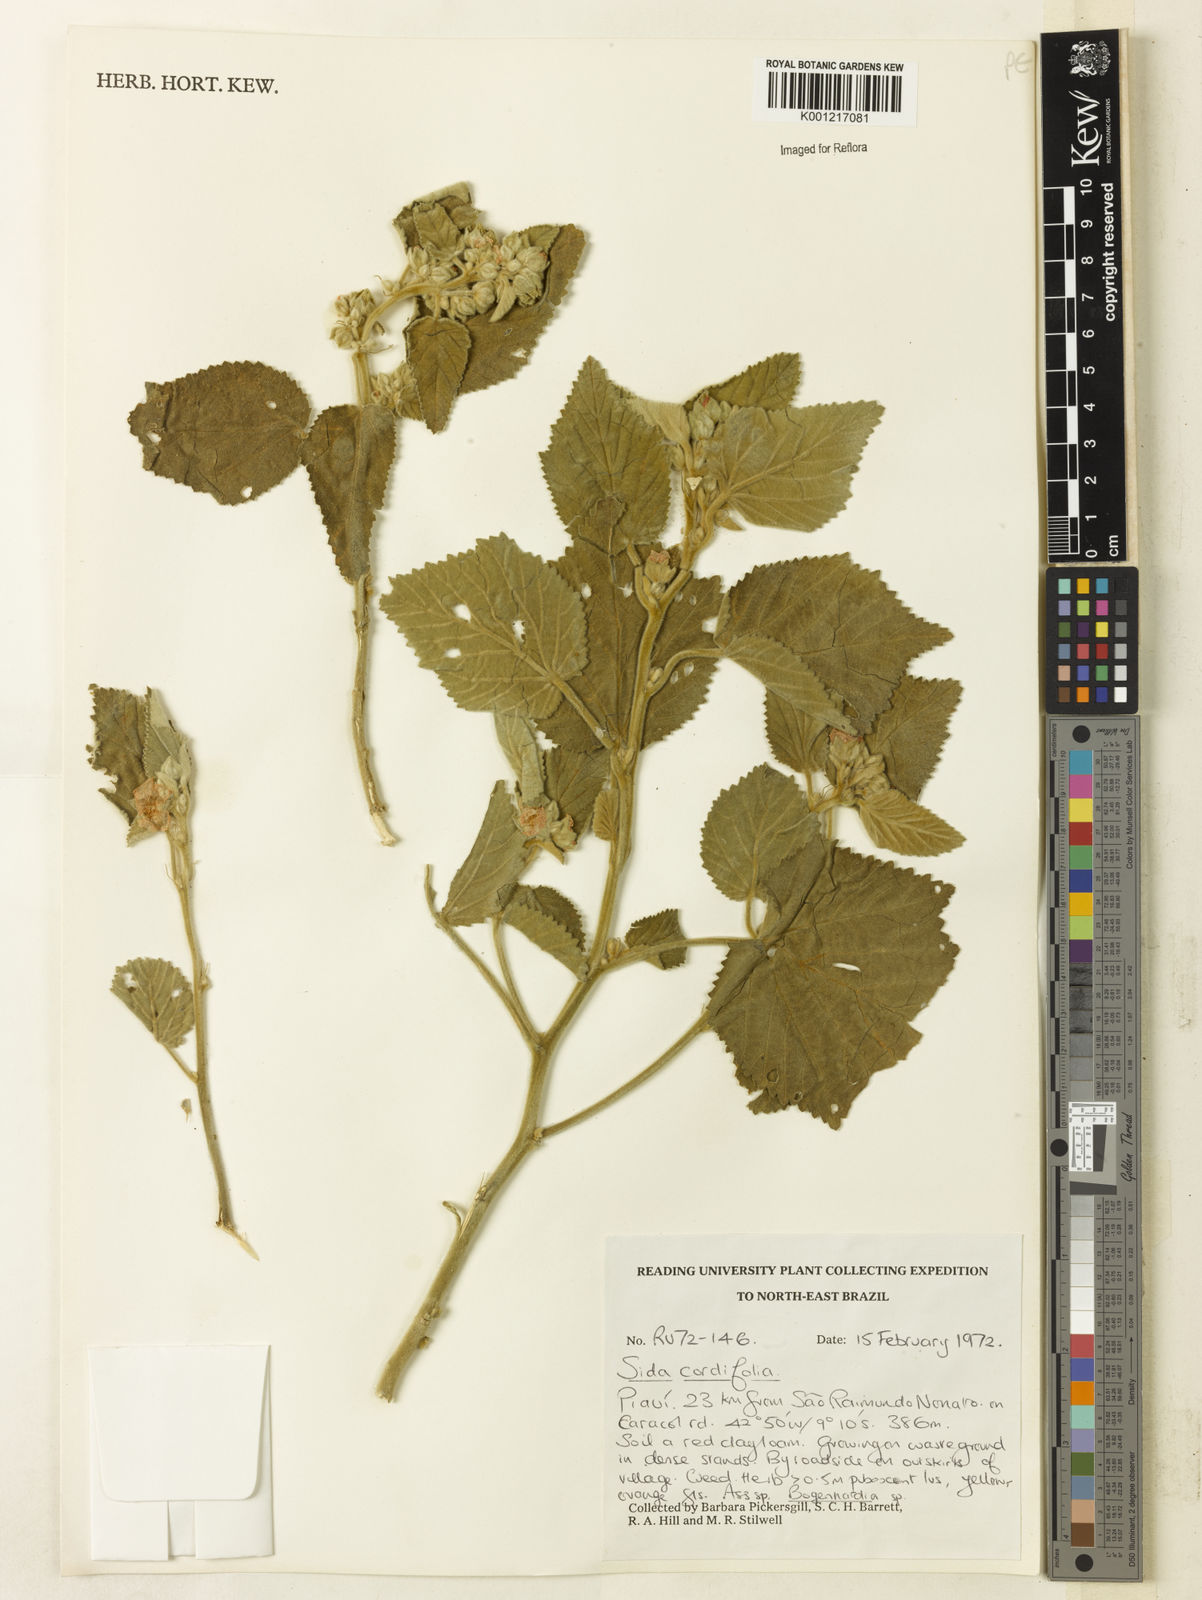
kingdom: Plantae
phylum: Tracheophyta
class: Magnoliopsida
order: Malvales
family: Malvaceae
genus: Sida
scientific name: Sida cordifolia
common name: Ilima
